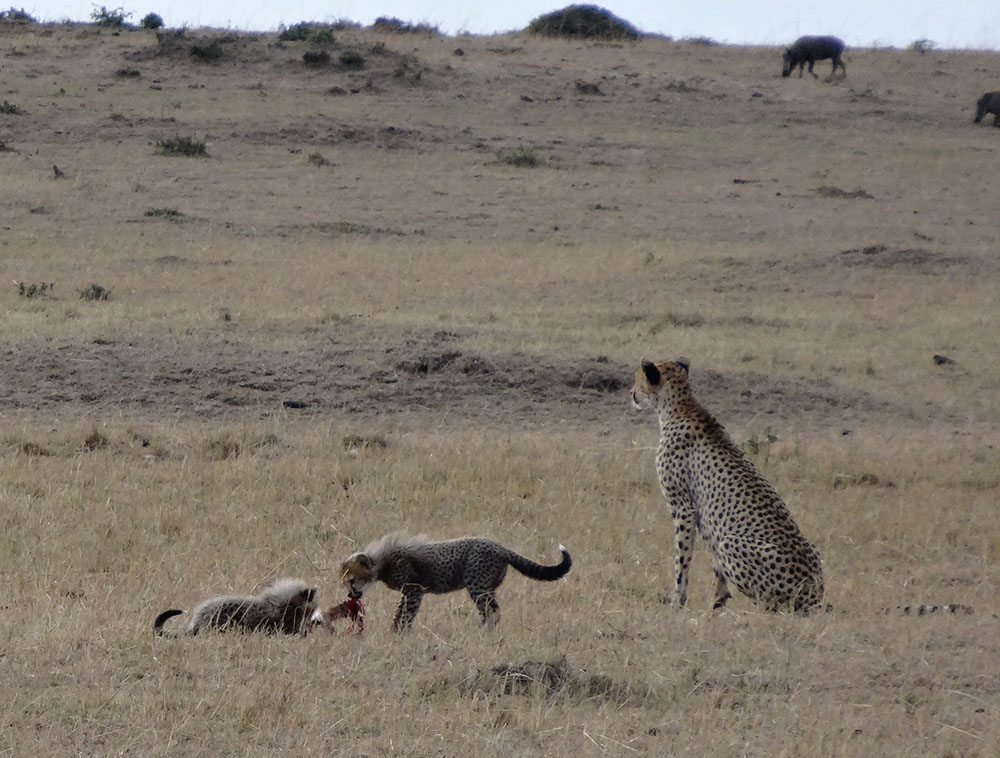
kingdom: Animalia
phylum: Chordata
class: Mammalia
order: Carnivora
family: Felidae
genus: Acinonyx
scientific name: Acinonyx jubatus
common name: Cheetah
